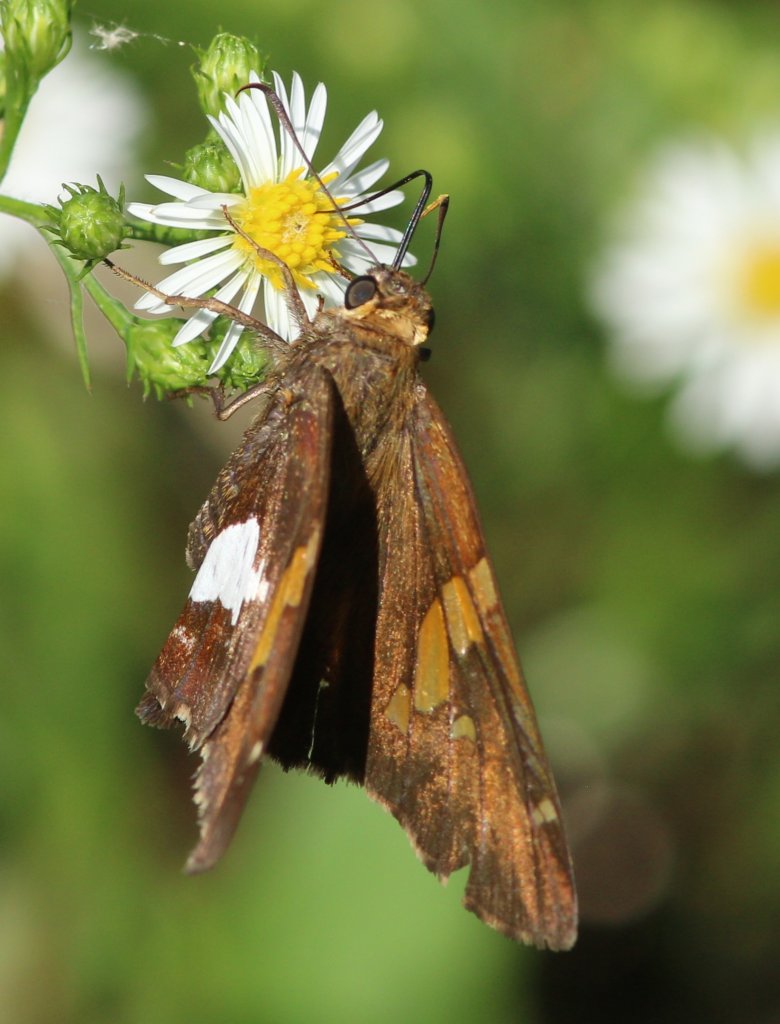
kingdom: Animalia
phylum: Arthropoda
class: Insecta
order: Lepidoptera
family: Hesperiidae
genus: Epargyreus
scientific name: Epargyreus clarus
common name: Silver-spotted Skipper
